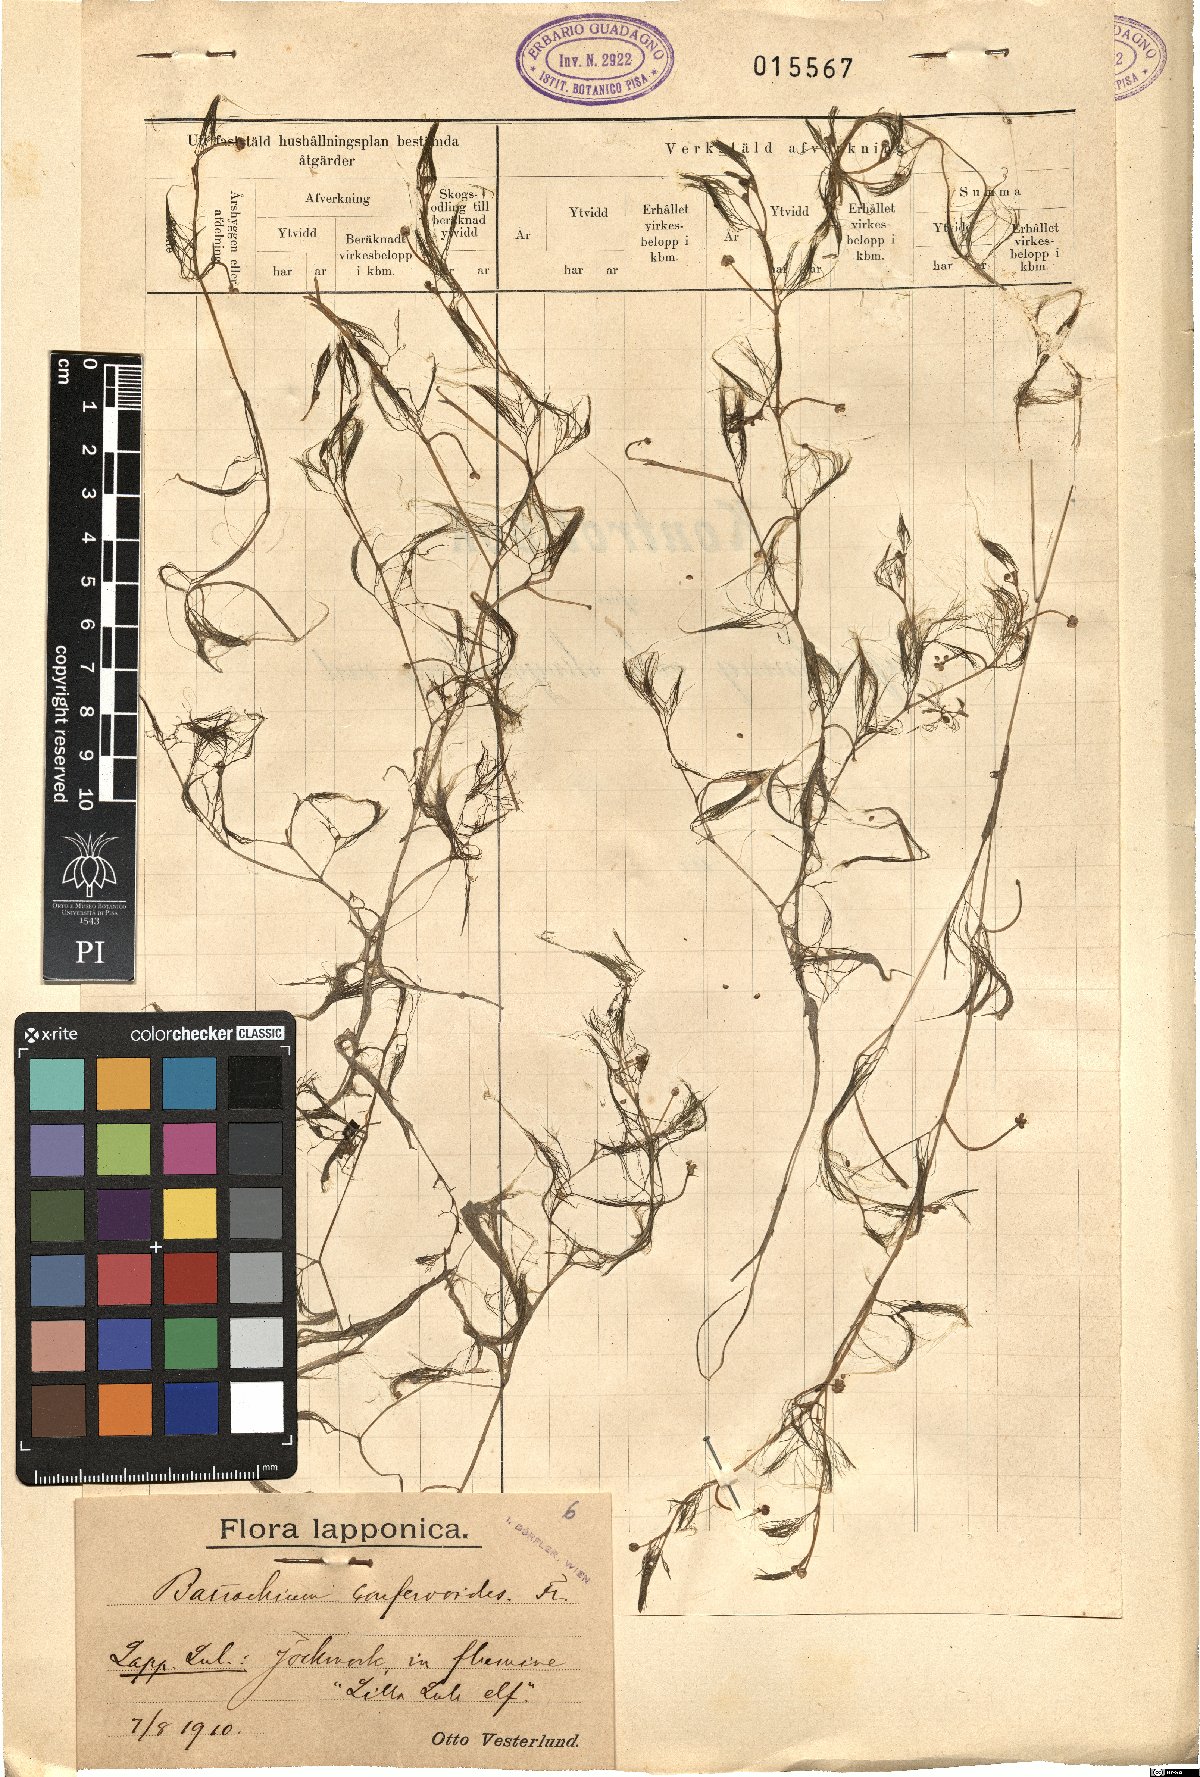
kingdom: Plantae
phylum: Tracheophyta
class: Magnoliopsida
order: Ranunculales
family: Ranunculaceae
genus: Ranunculus
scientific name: Ranunculus confervoides
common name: Delicate buttercup
